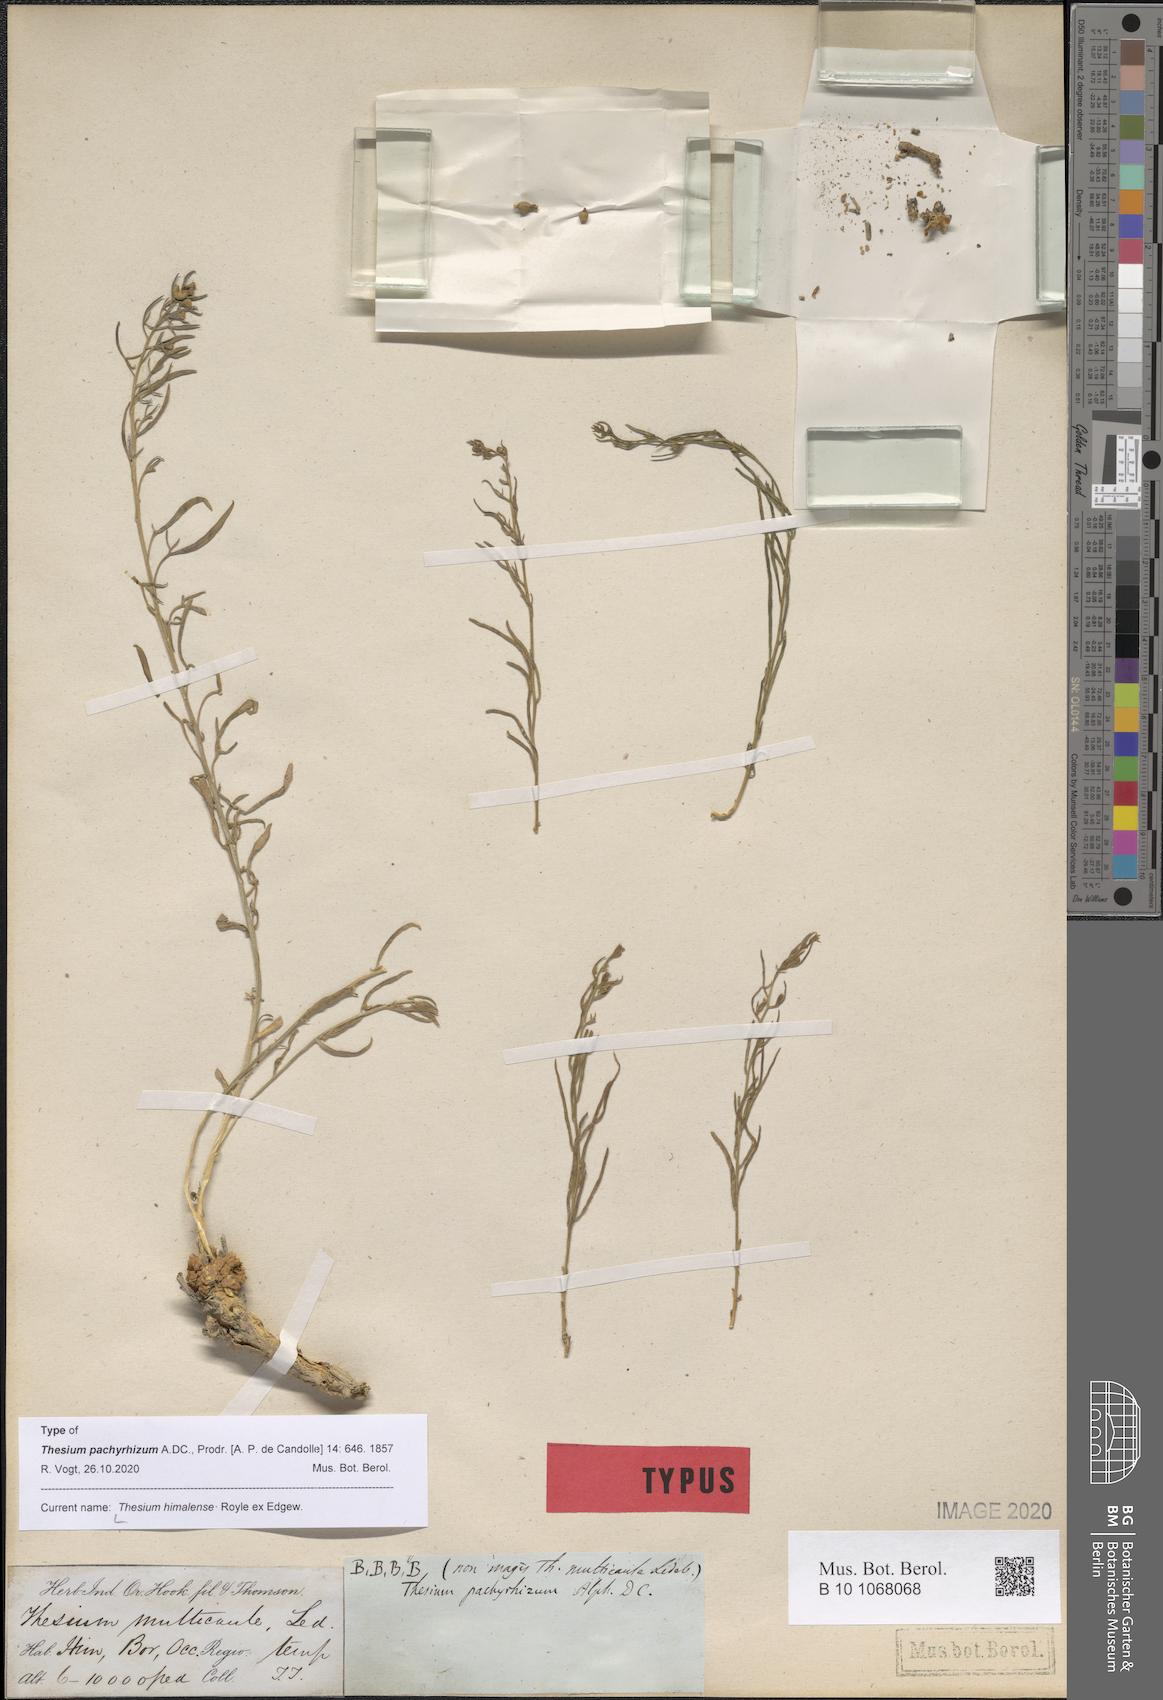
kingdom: Plantae
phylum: Tracheophyta
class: Magnoliopsida
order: Santalales
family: Thesiaceae
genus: Thesium
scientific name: Thesium himalense
